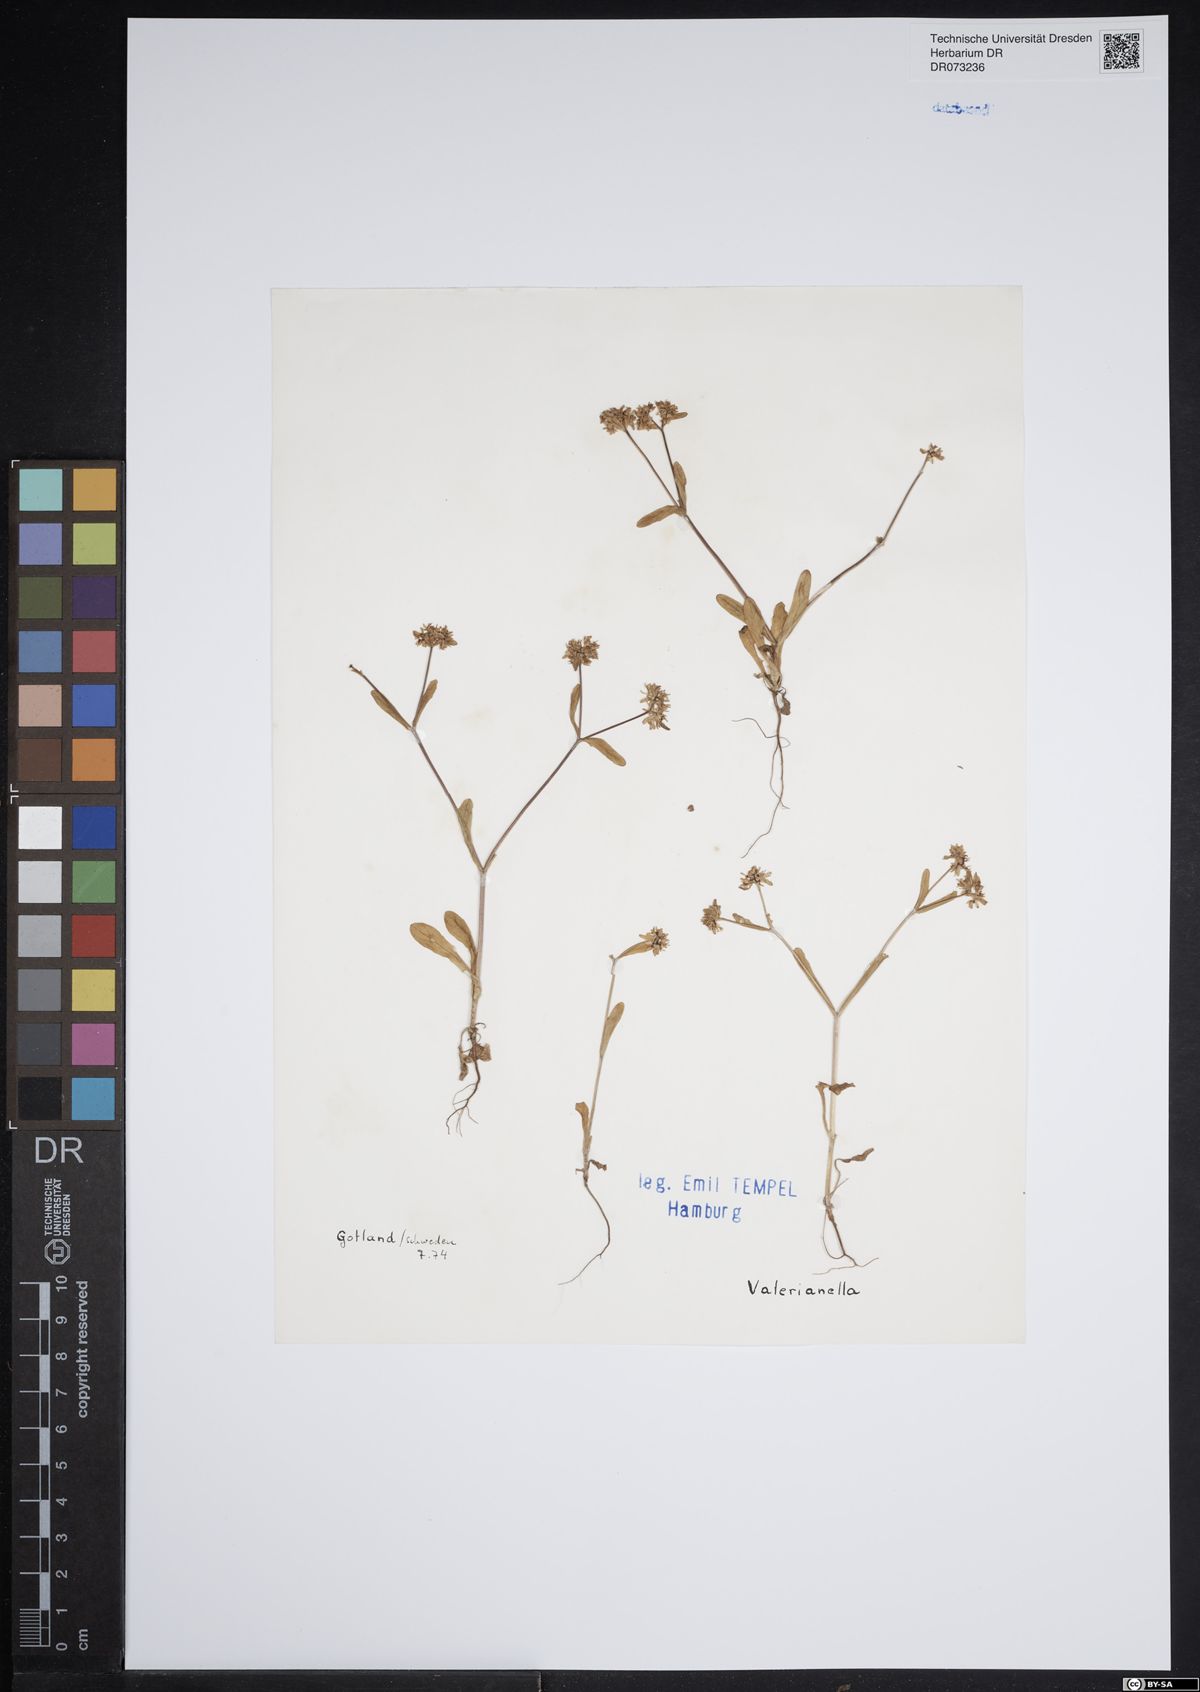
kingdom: Plantae
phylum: Tracheophyta
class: Magnoliopsida
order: Dipsacales
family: Caprifoliaceae
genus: Valerianella
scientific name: Valerianella
